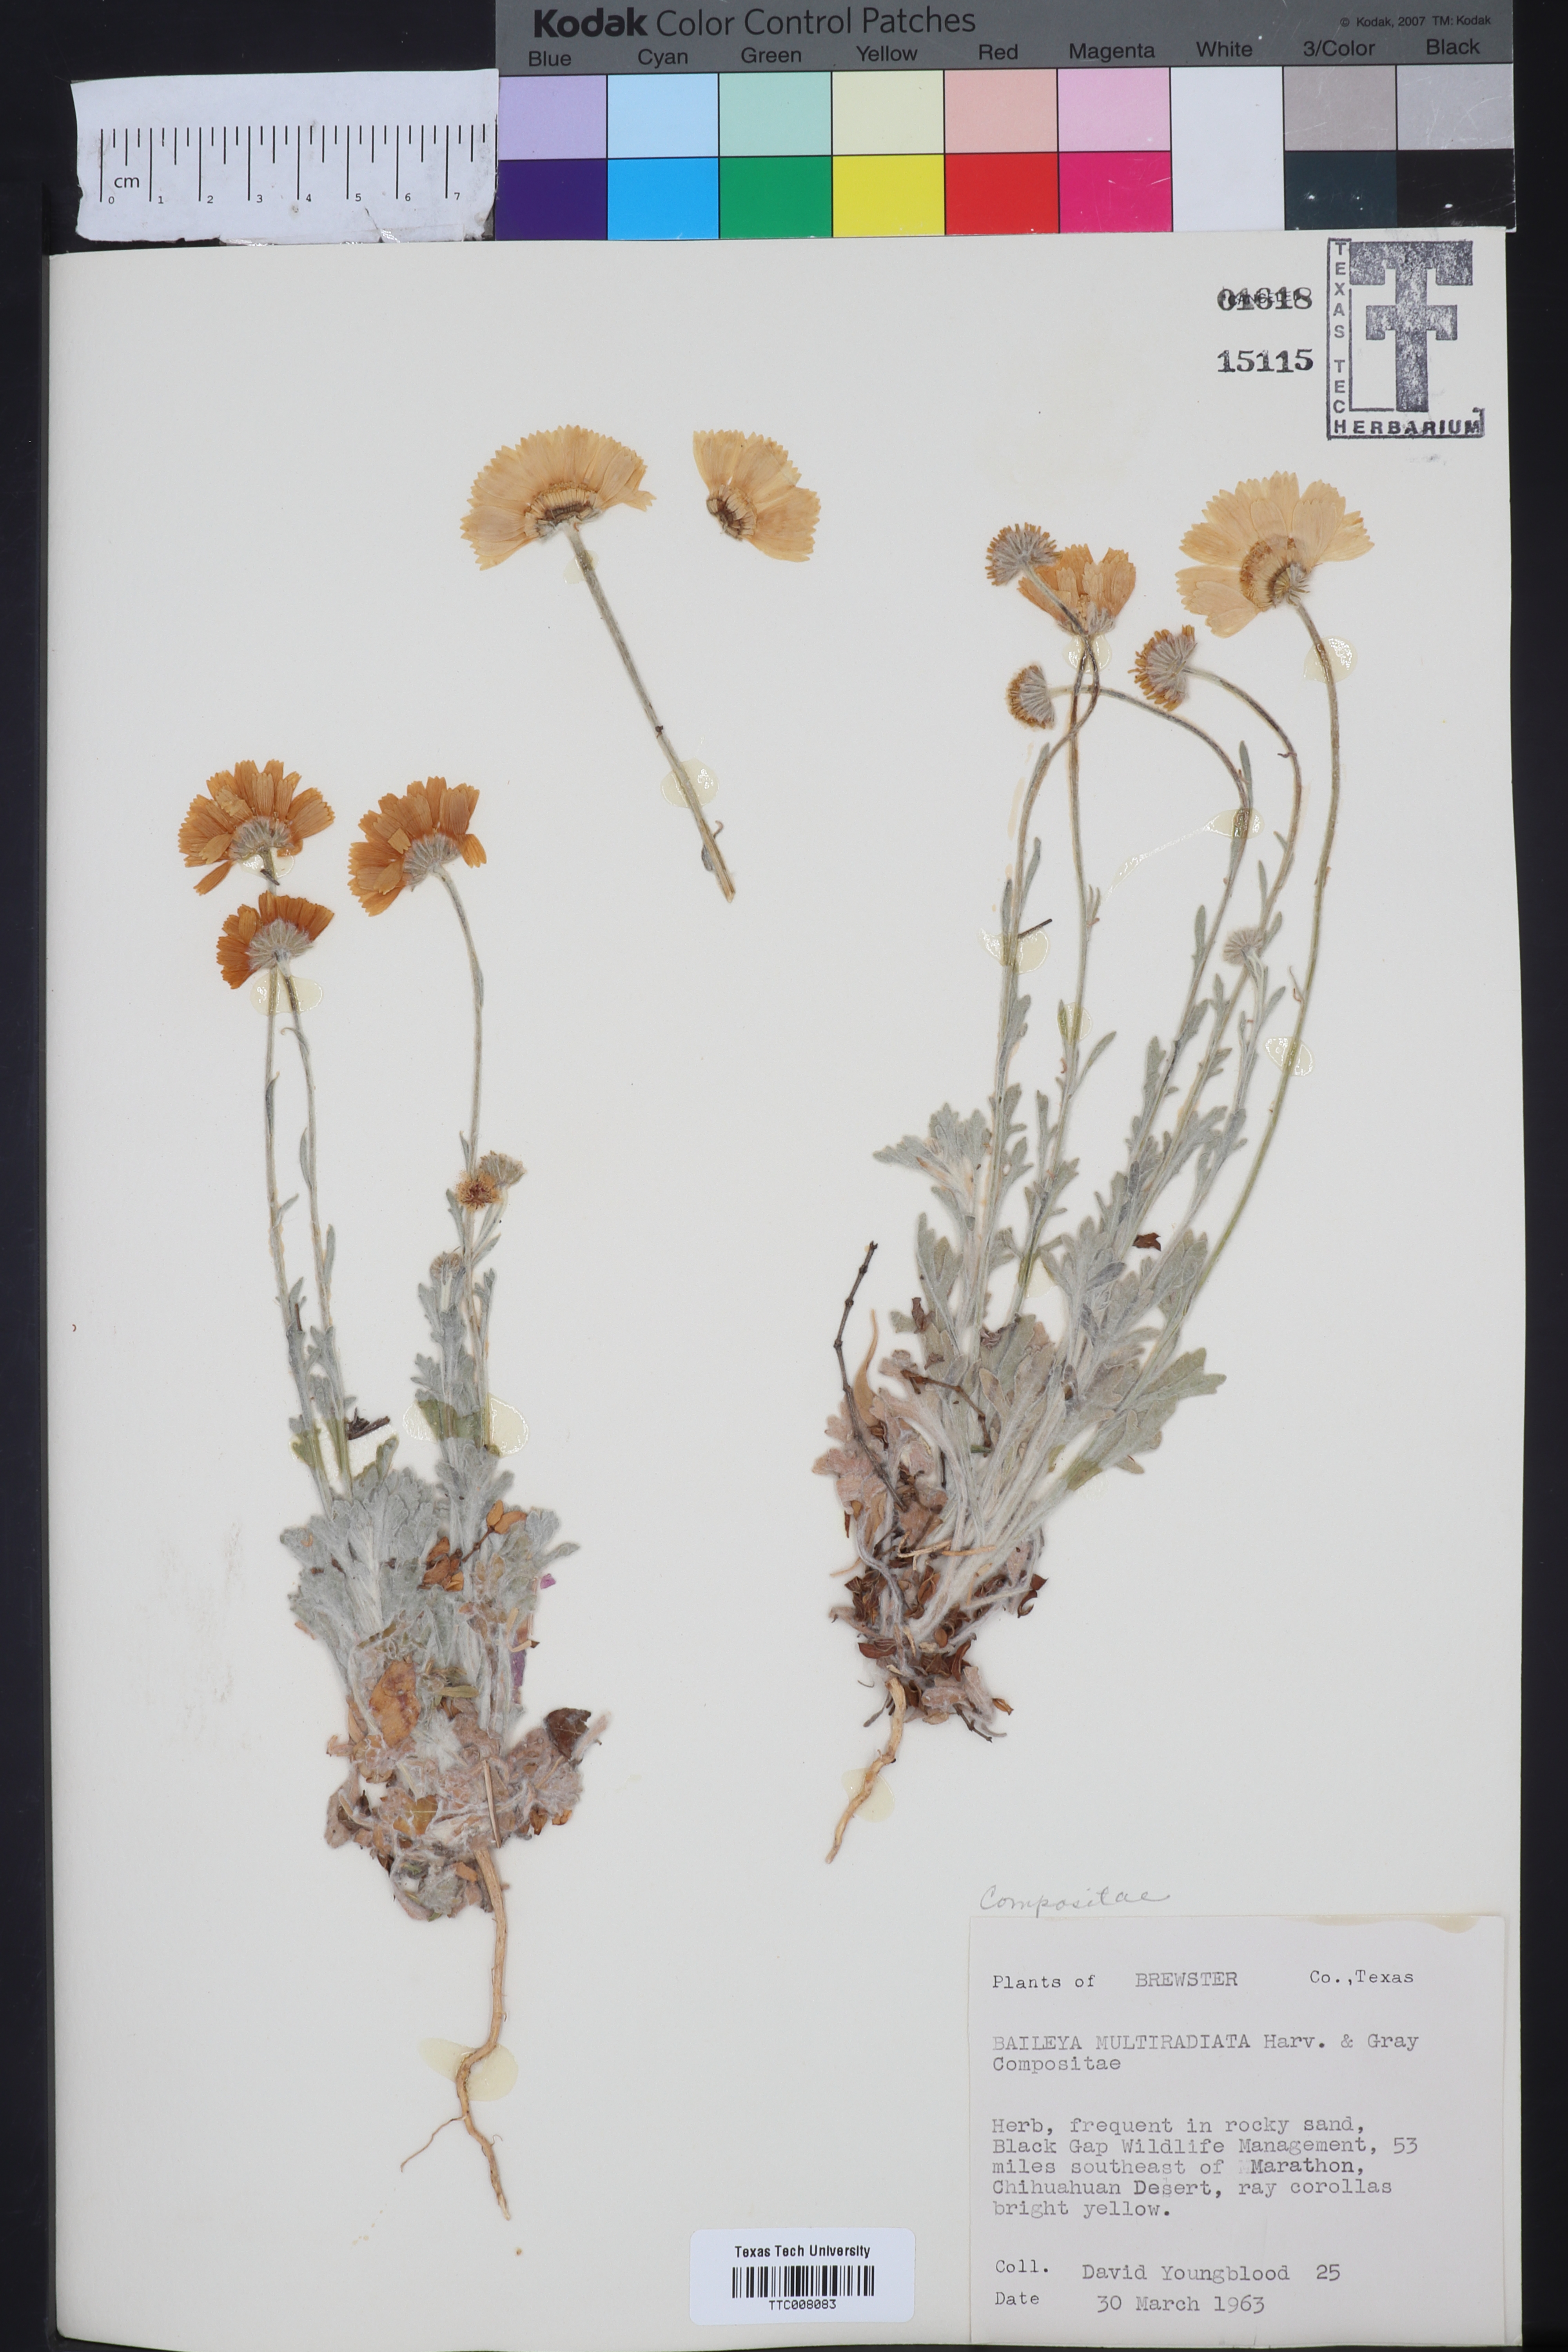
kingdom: Plantae
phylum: Tracheophyta
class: Magnoliopsida
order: Asterales
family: Asteraceae
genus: Baileya
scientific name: Baileya multiradiata
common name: Desert-marigold
